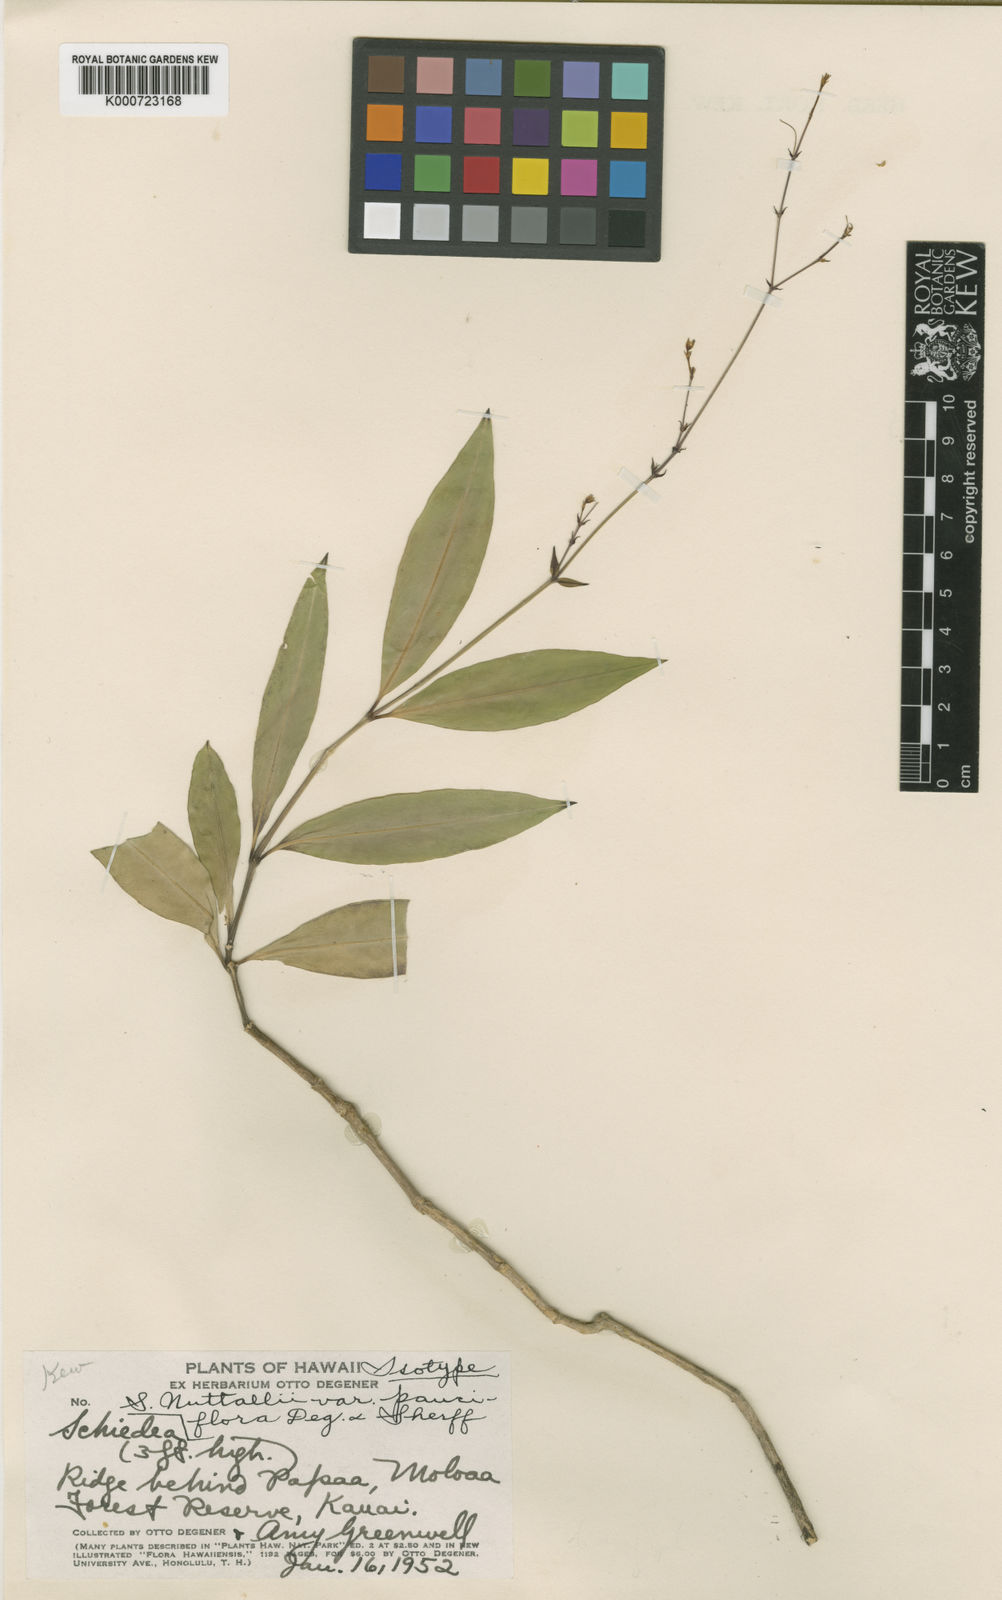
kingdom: Plantae
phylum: Tracheophyta
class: Magnoliopsida
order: Caryophyllales
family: Caryophyllaceae
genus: Schiedea
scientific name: Schiedea nuttallii
